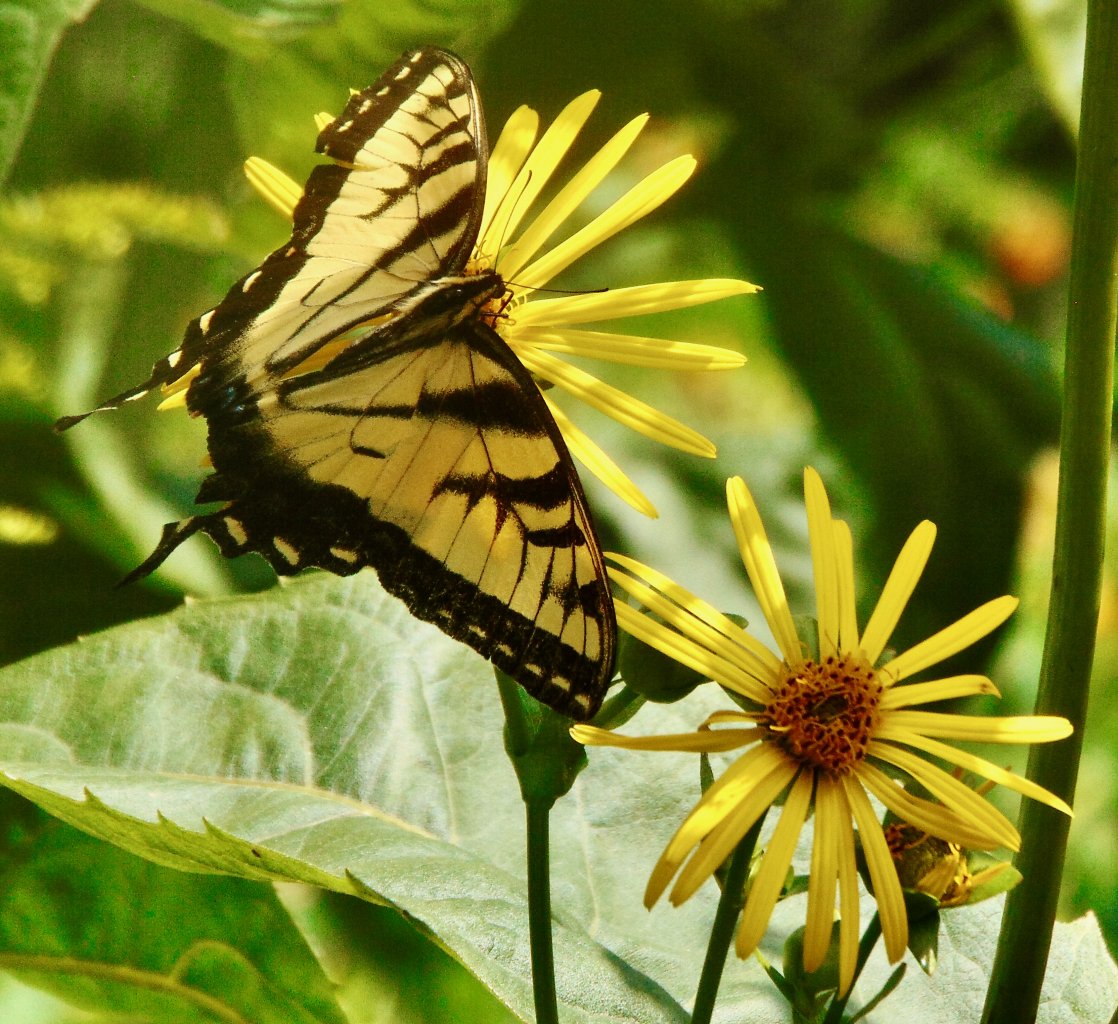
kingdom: Animalia
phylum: Arthropoda
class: Insecta
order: Lepidoptera
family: Papilionidae
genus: Pterourus
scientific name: Pterourus glaucus
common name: Eastern Tiger Swallowtail
